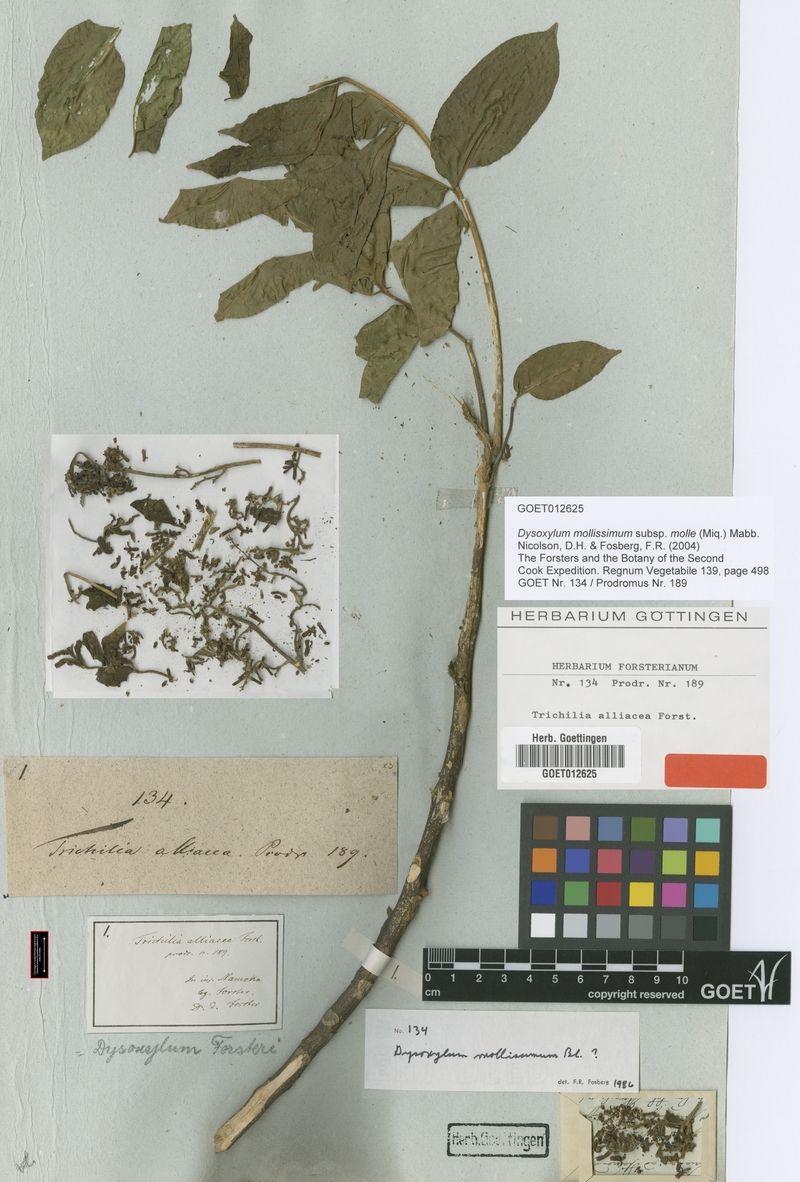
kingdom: Plantae
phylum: Tracheophyta
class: Magnoliopsida
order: Sapindales
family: Meliaceae
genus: Didymocheton
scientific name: Didymocheton mollis
